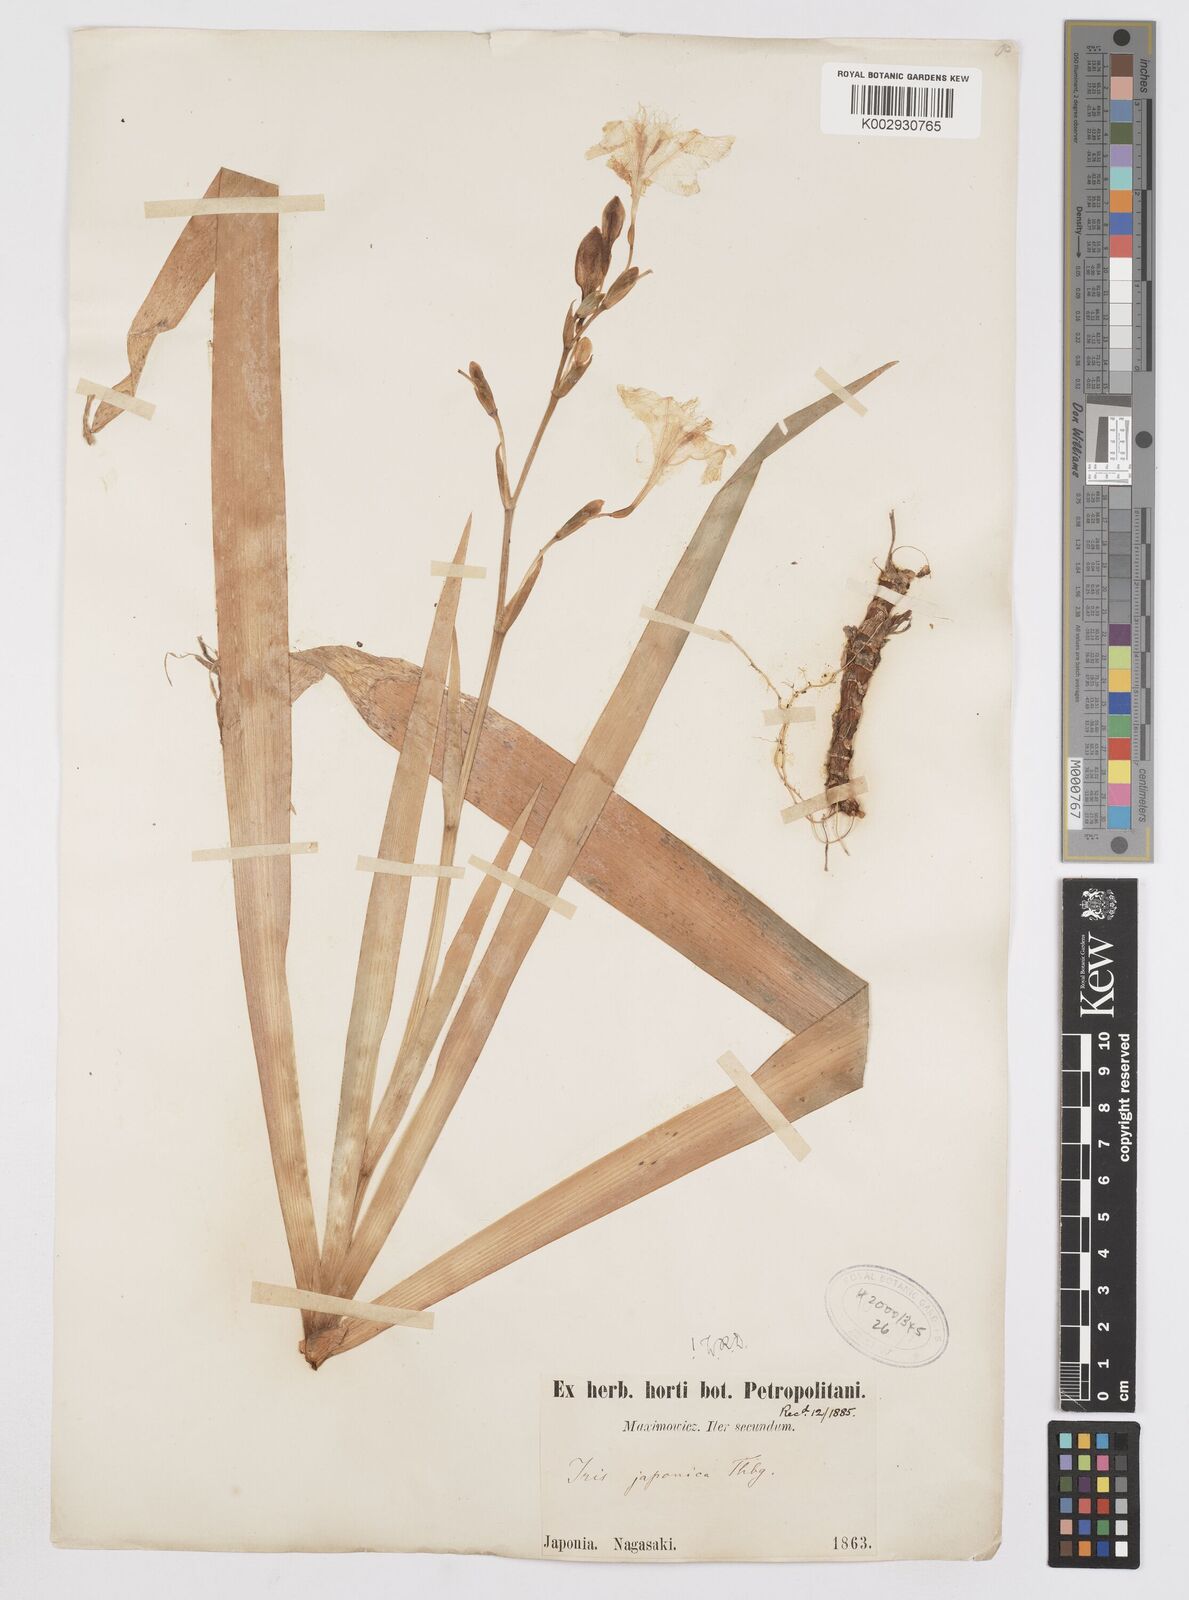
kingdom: Plantae
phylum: Tracheophyta
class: Liliopsida
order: Asparagales
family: Iridaceae
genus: Iris
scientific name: Iris japonica
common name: Butterfly-flower
